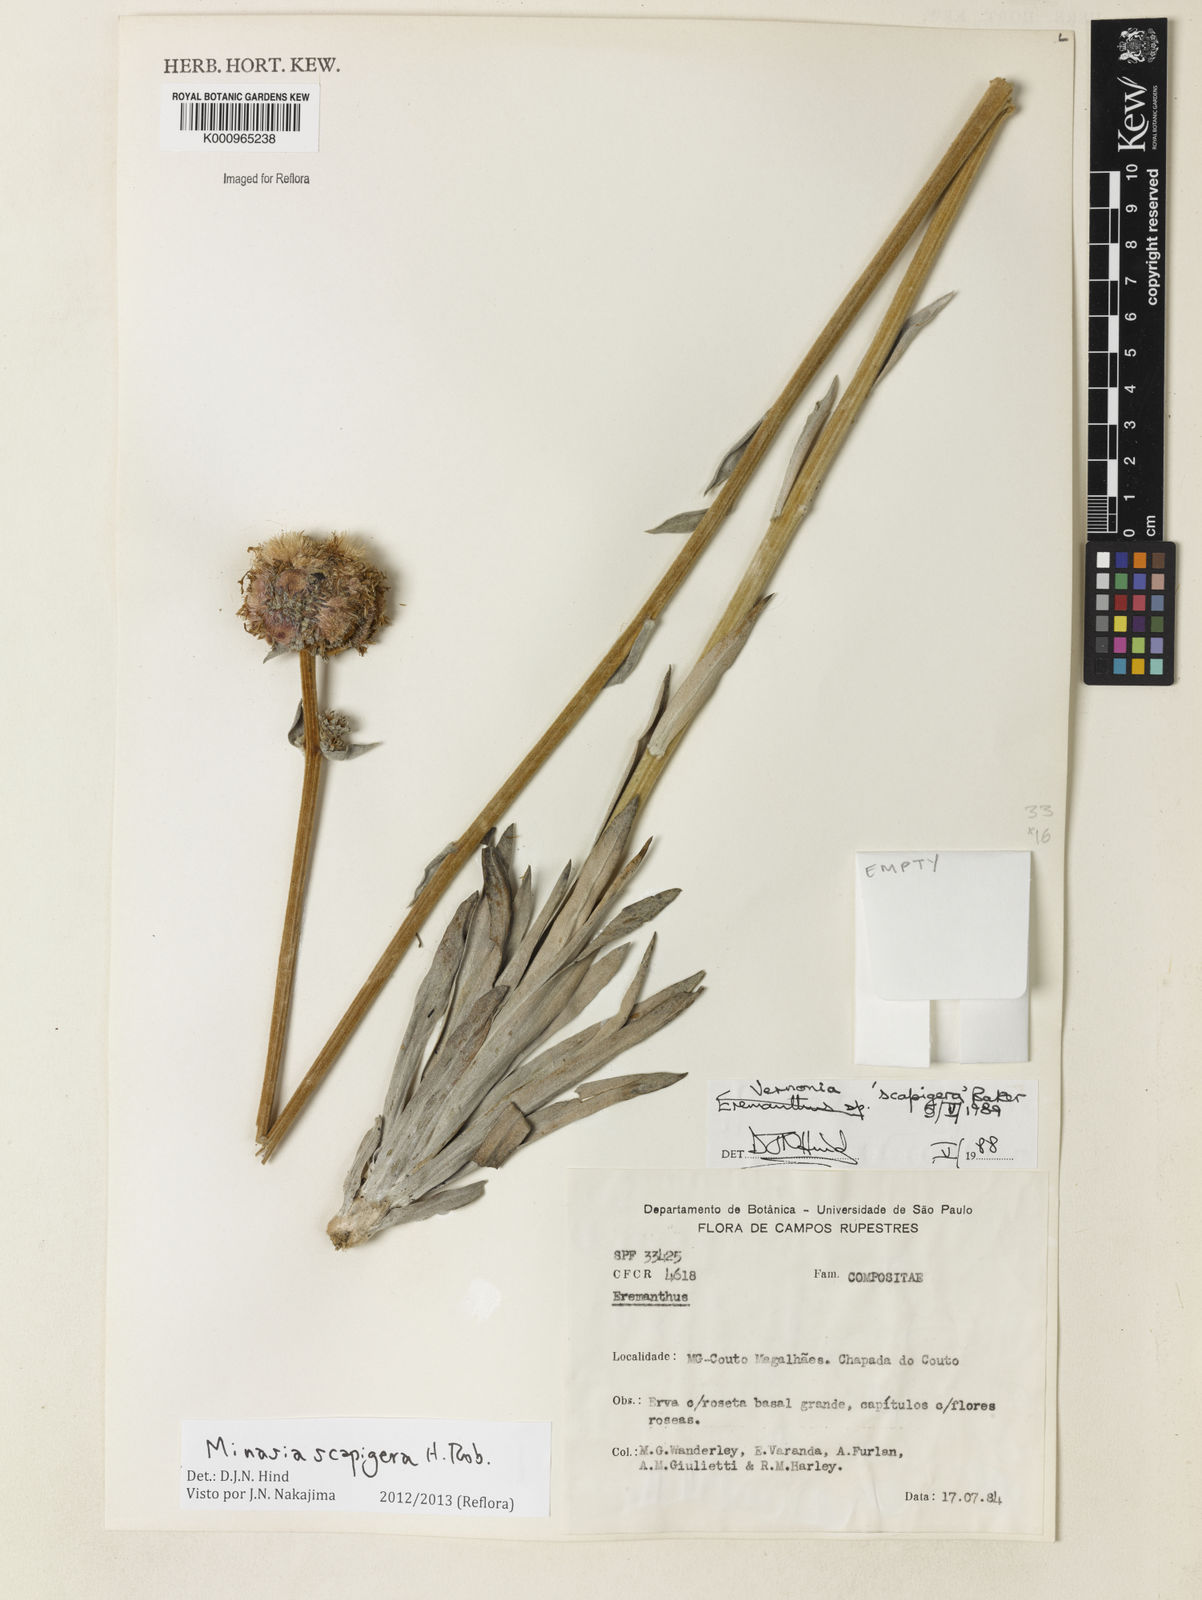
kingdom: Plantae
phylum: Tracheophyta
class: Magnoliopsida
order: Asterales
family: Asteraceae
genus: Minasia
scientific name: Minasia scapigera
